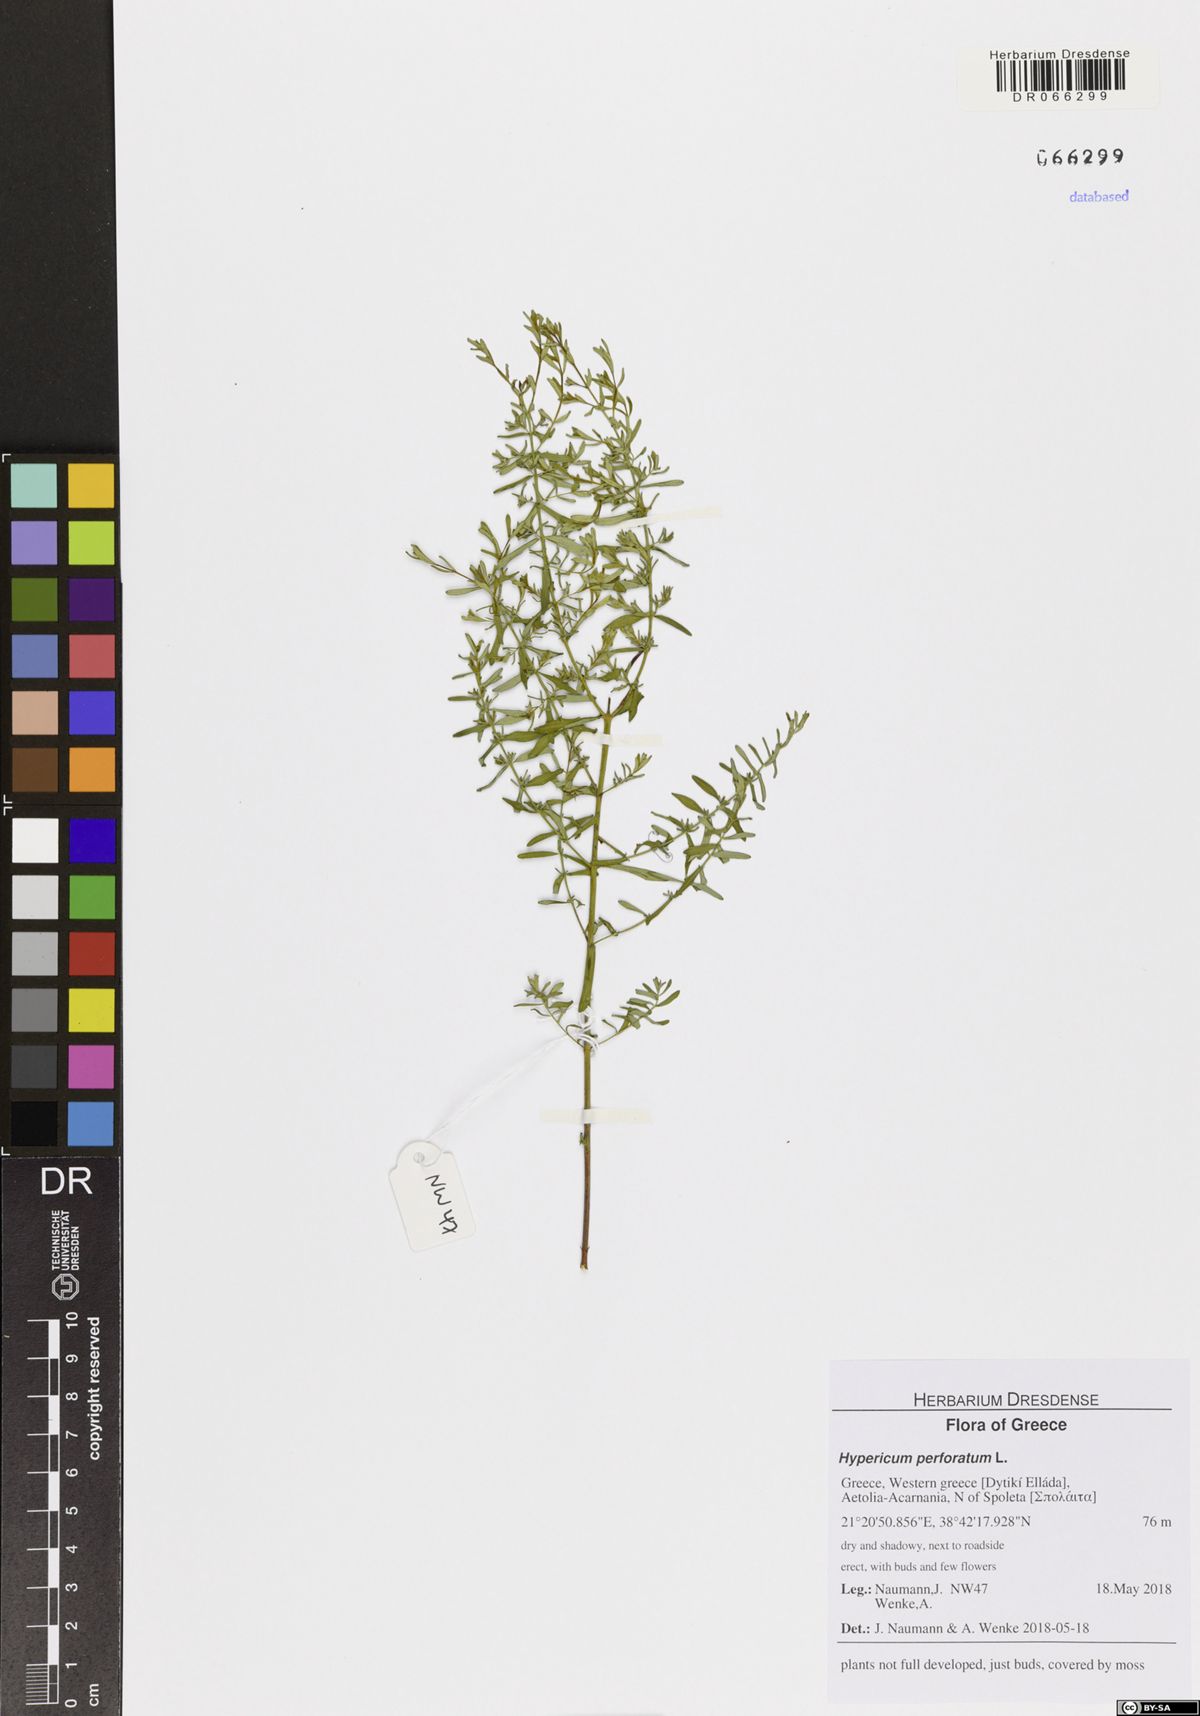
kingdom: Plantae
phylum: Tracheophyta
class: Magnoliopsida
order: Malpighiales
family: Hypericaceae
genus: Hypericum
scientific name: Hypericum perforatum
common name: Common st. johnswort
